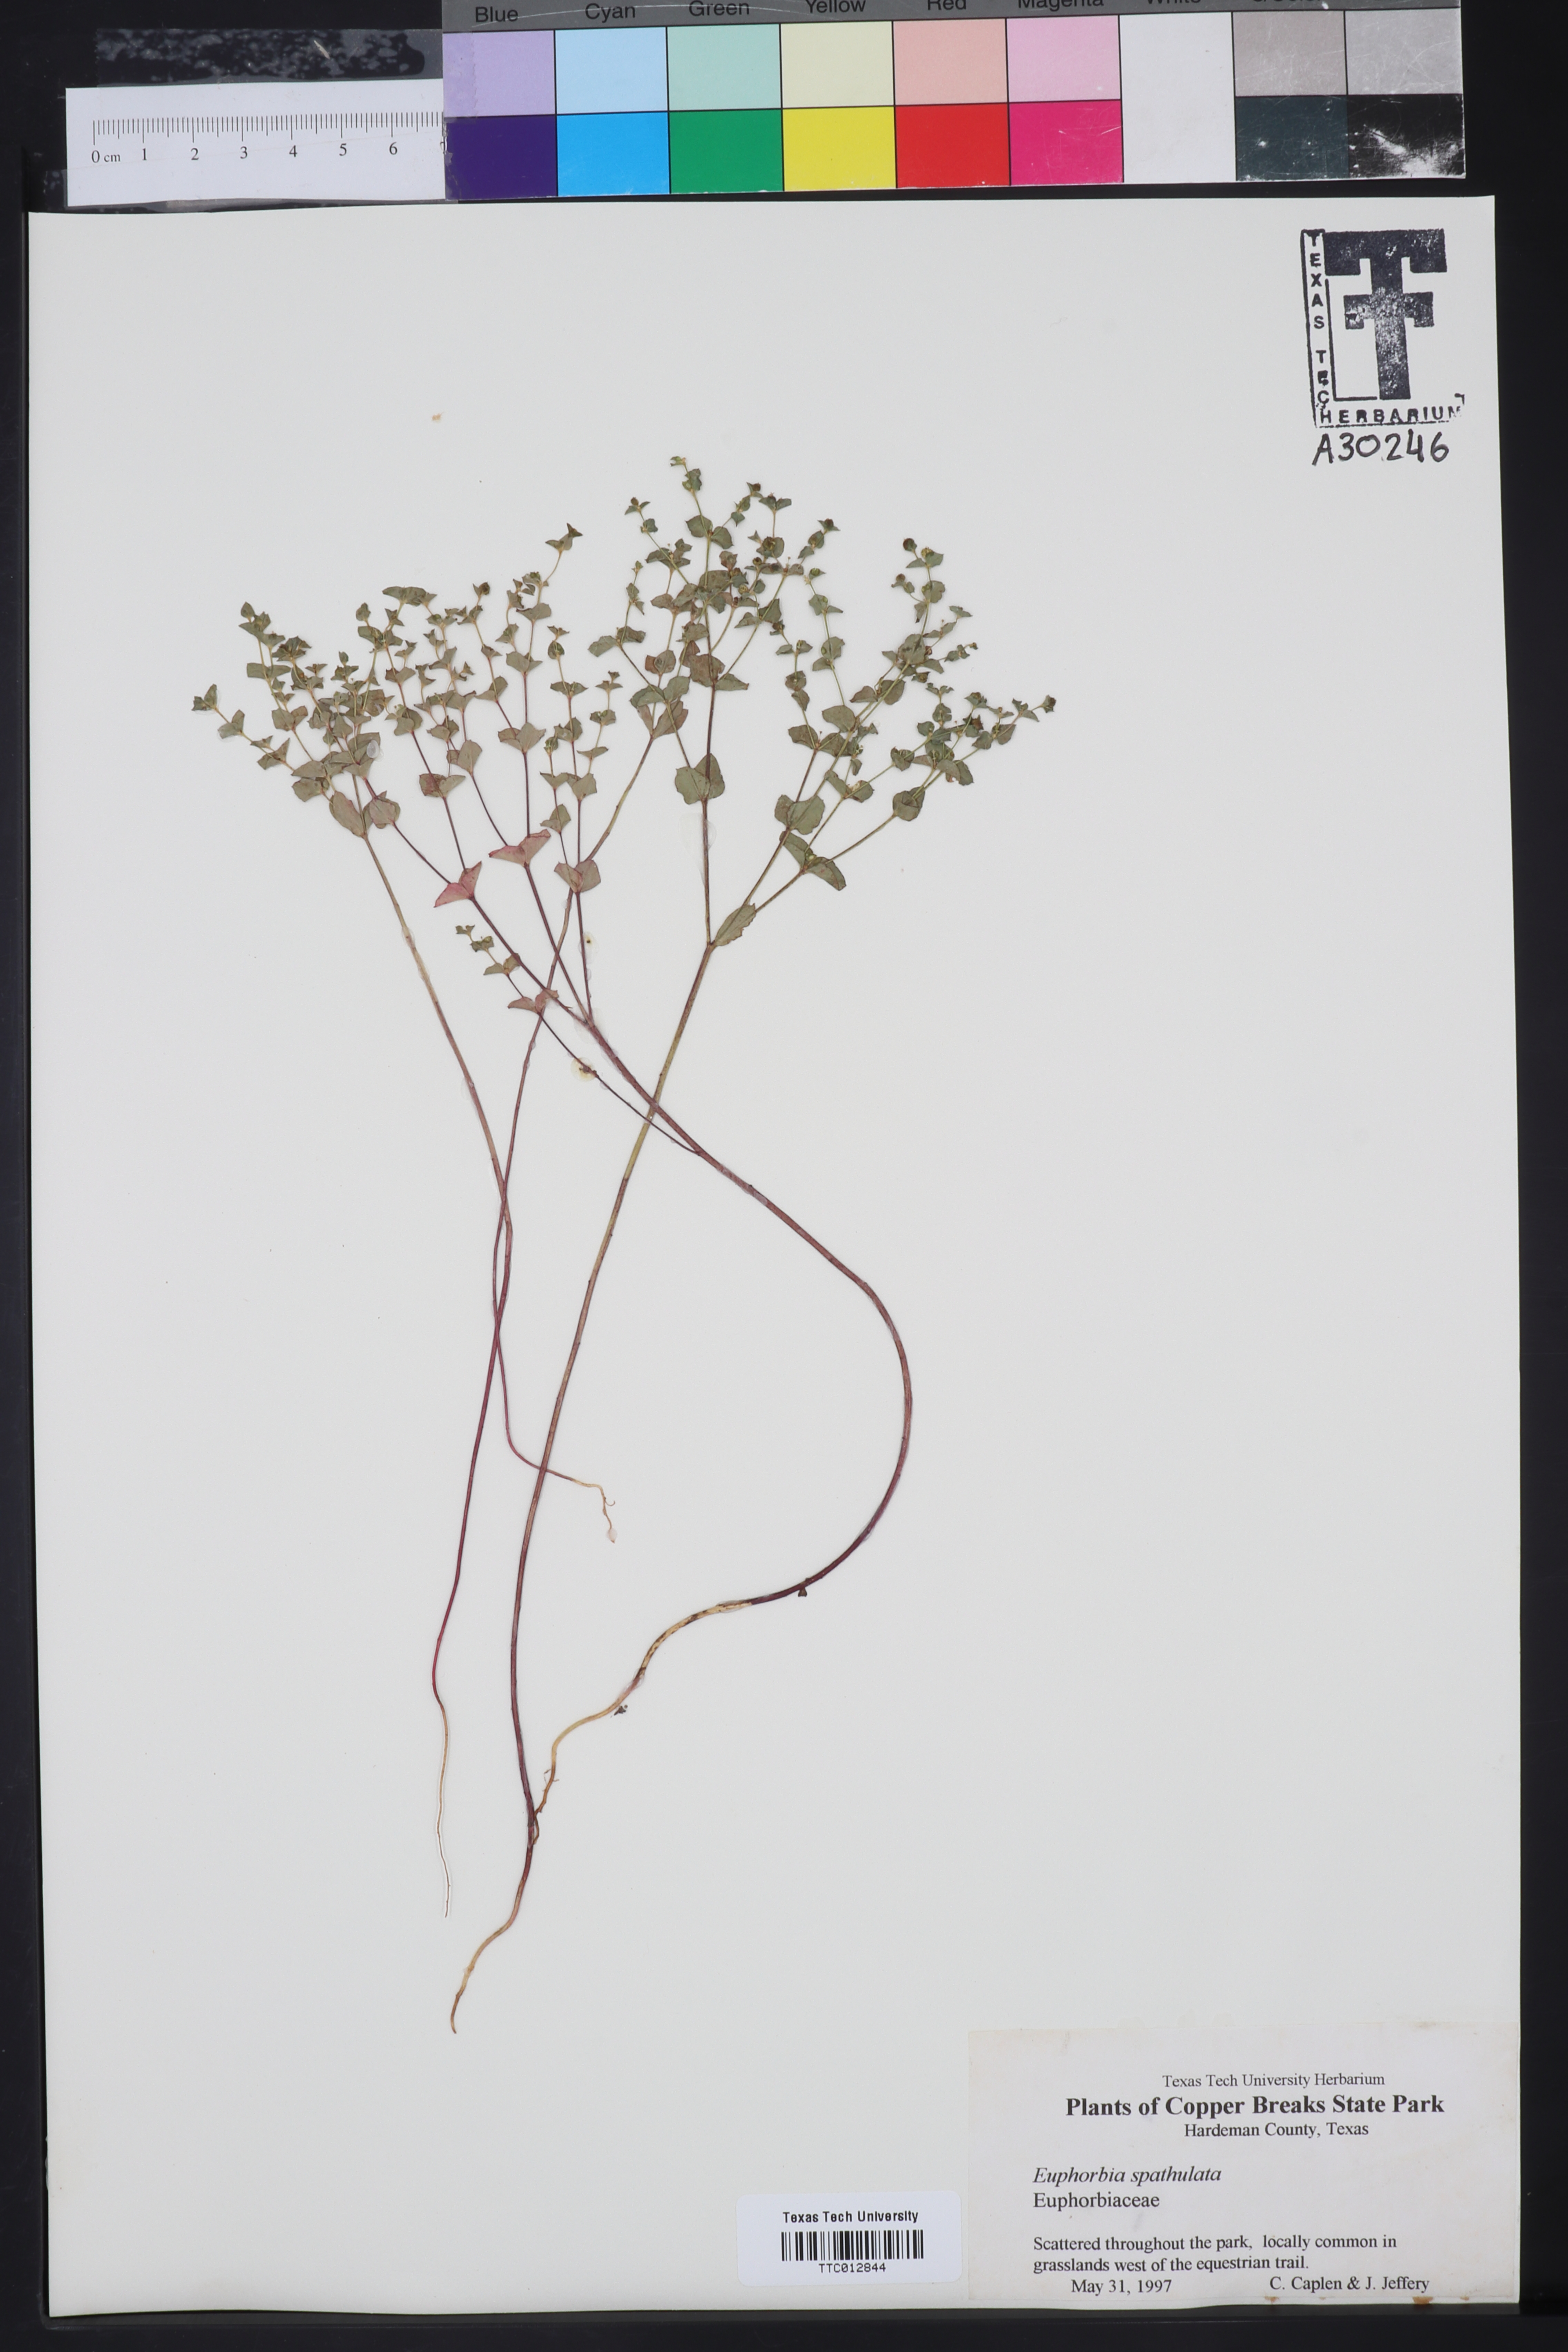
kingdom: Plantae
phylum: Tracheophyta
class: Magnoliopsida
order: Malpighiales
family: Euphorbiaceae
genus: Euphorbia
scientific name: Euphorbia spathulata
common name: Blunt spurge
